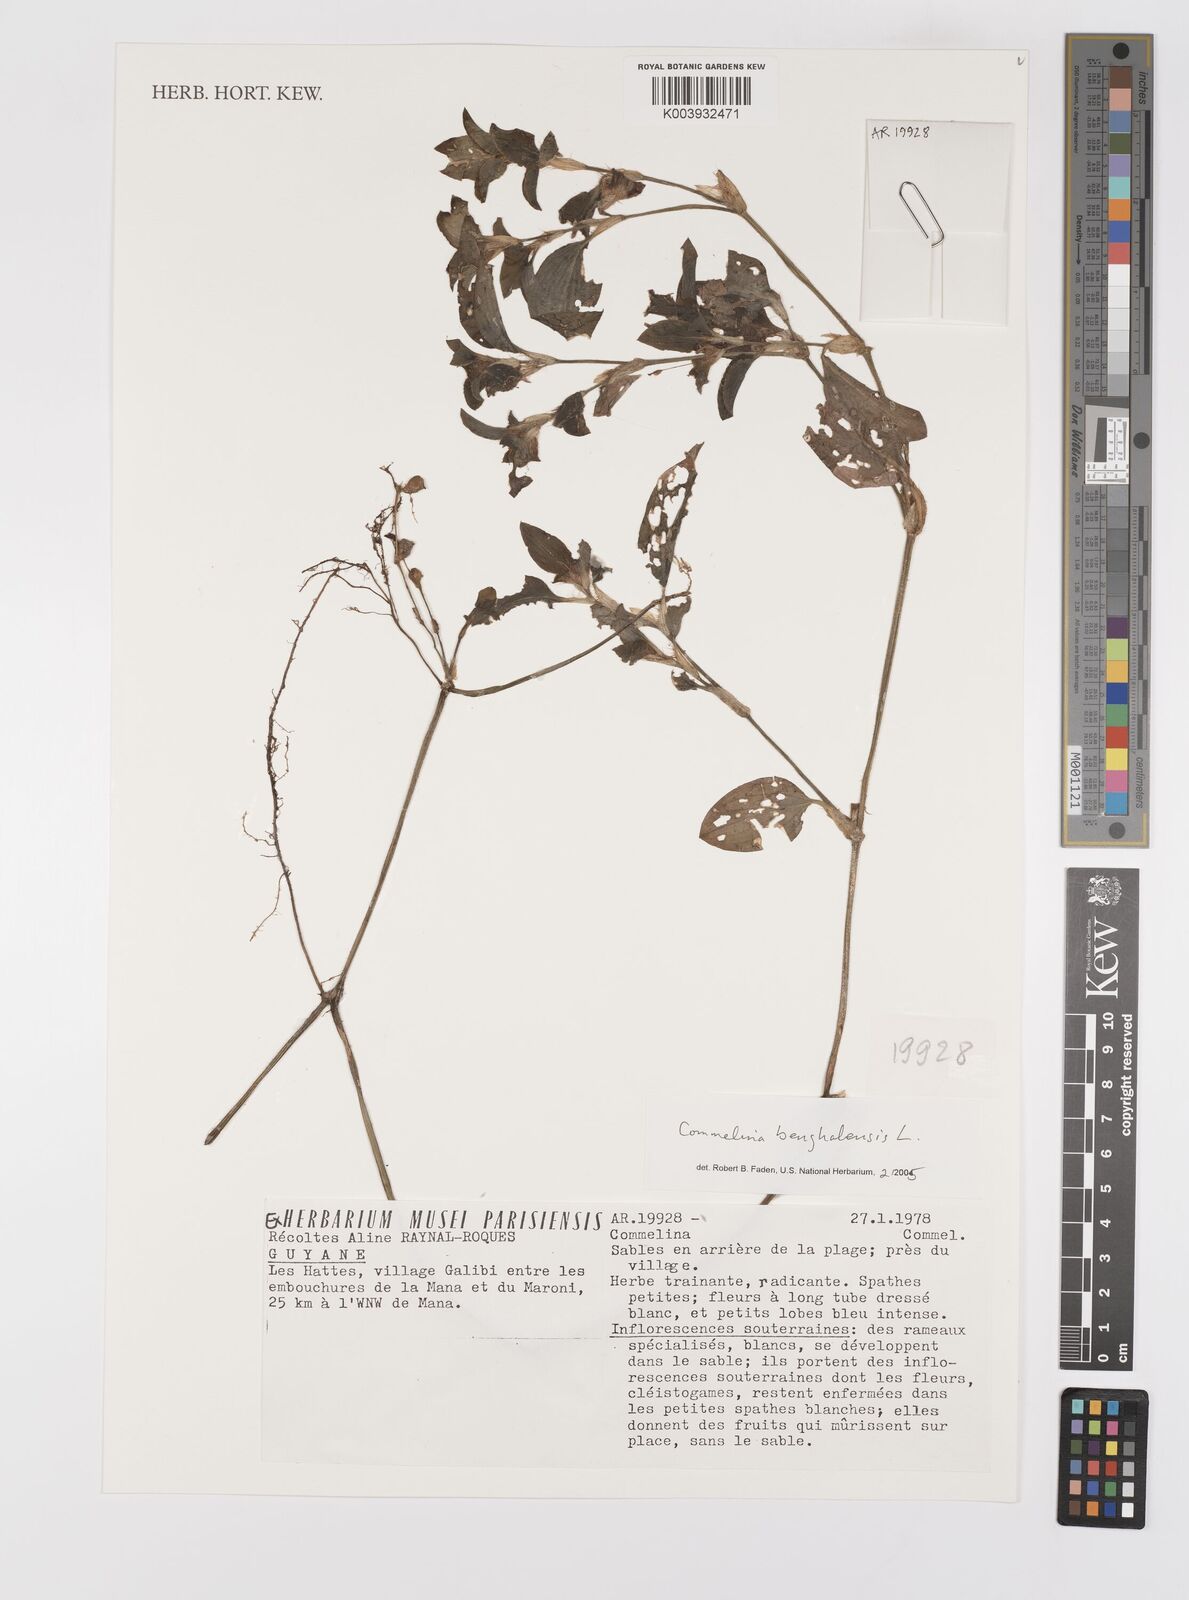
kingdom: Plantae
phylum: Tracheophyta
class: Liliopsida
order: Commelinales
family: Commelinaceae
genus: Commelina
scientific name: Commelina benghalensis
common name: Jio
